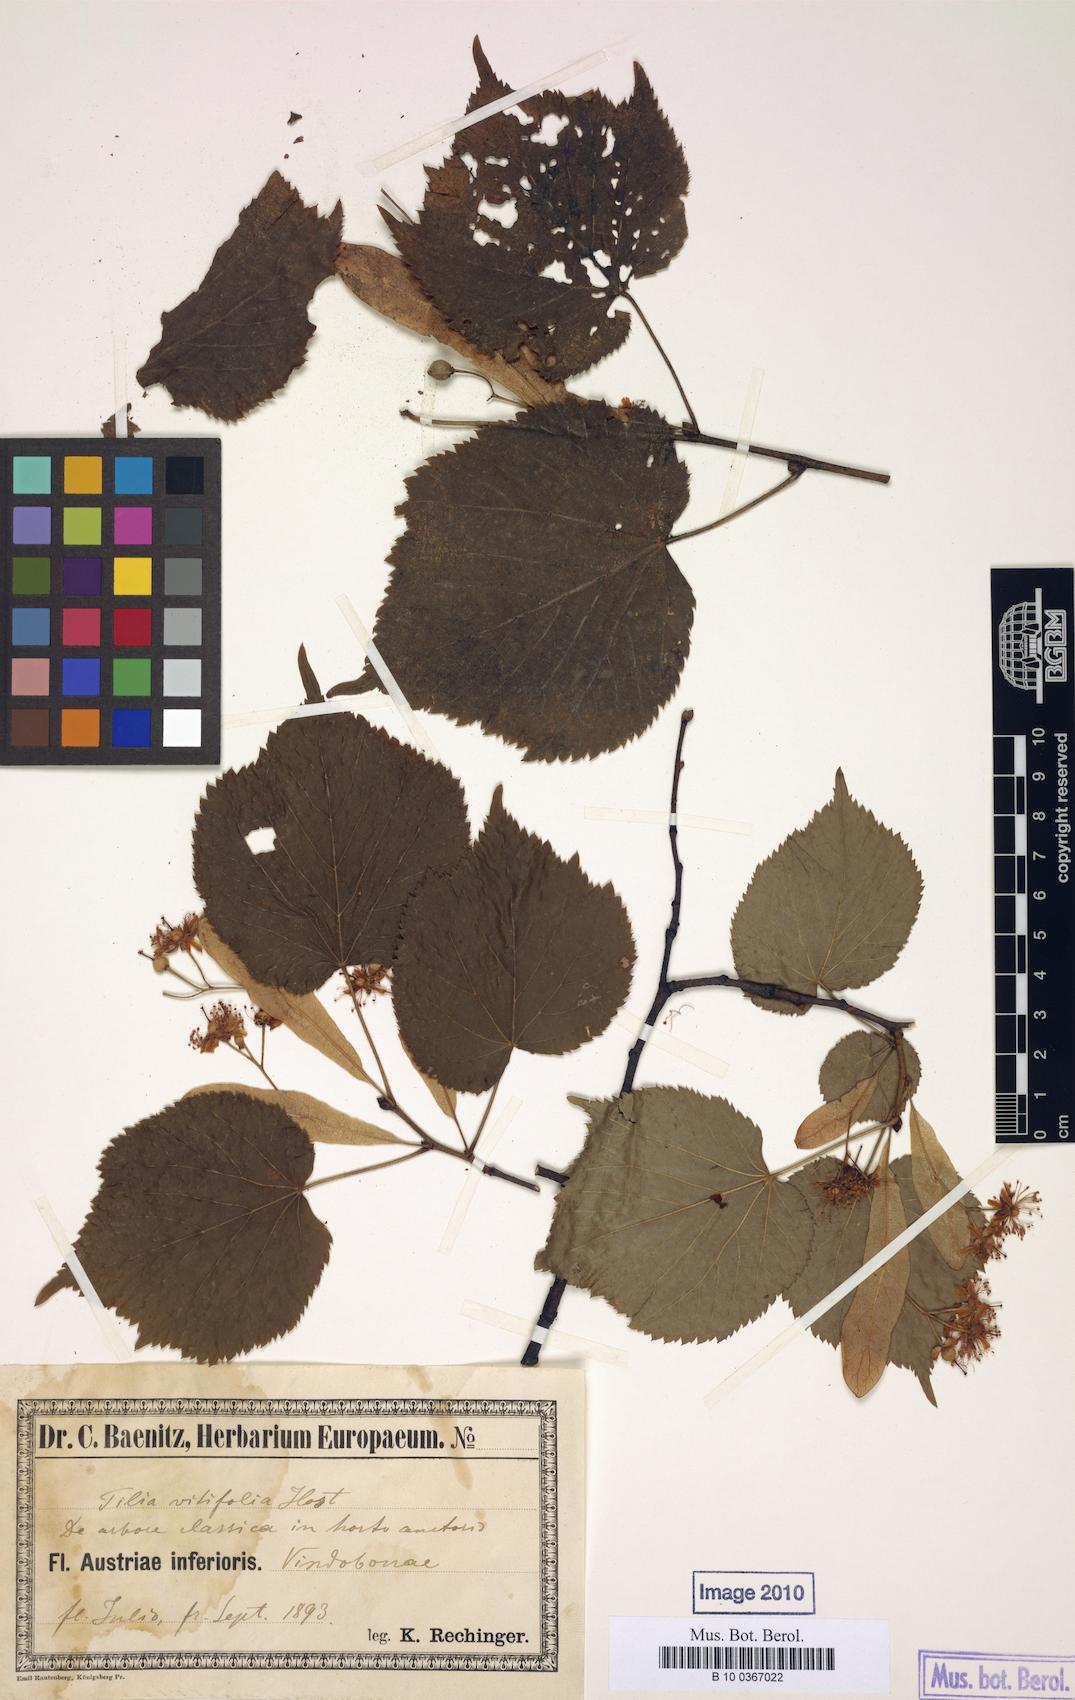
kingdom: Plantae
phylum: Tracheophyta
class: Magnoliopsida
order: Malvales
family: Malvaceae
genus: Tilia
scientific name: Tilia platyphyllos
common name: Large-leaved lime
